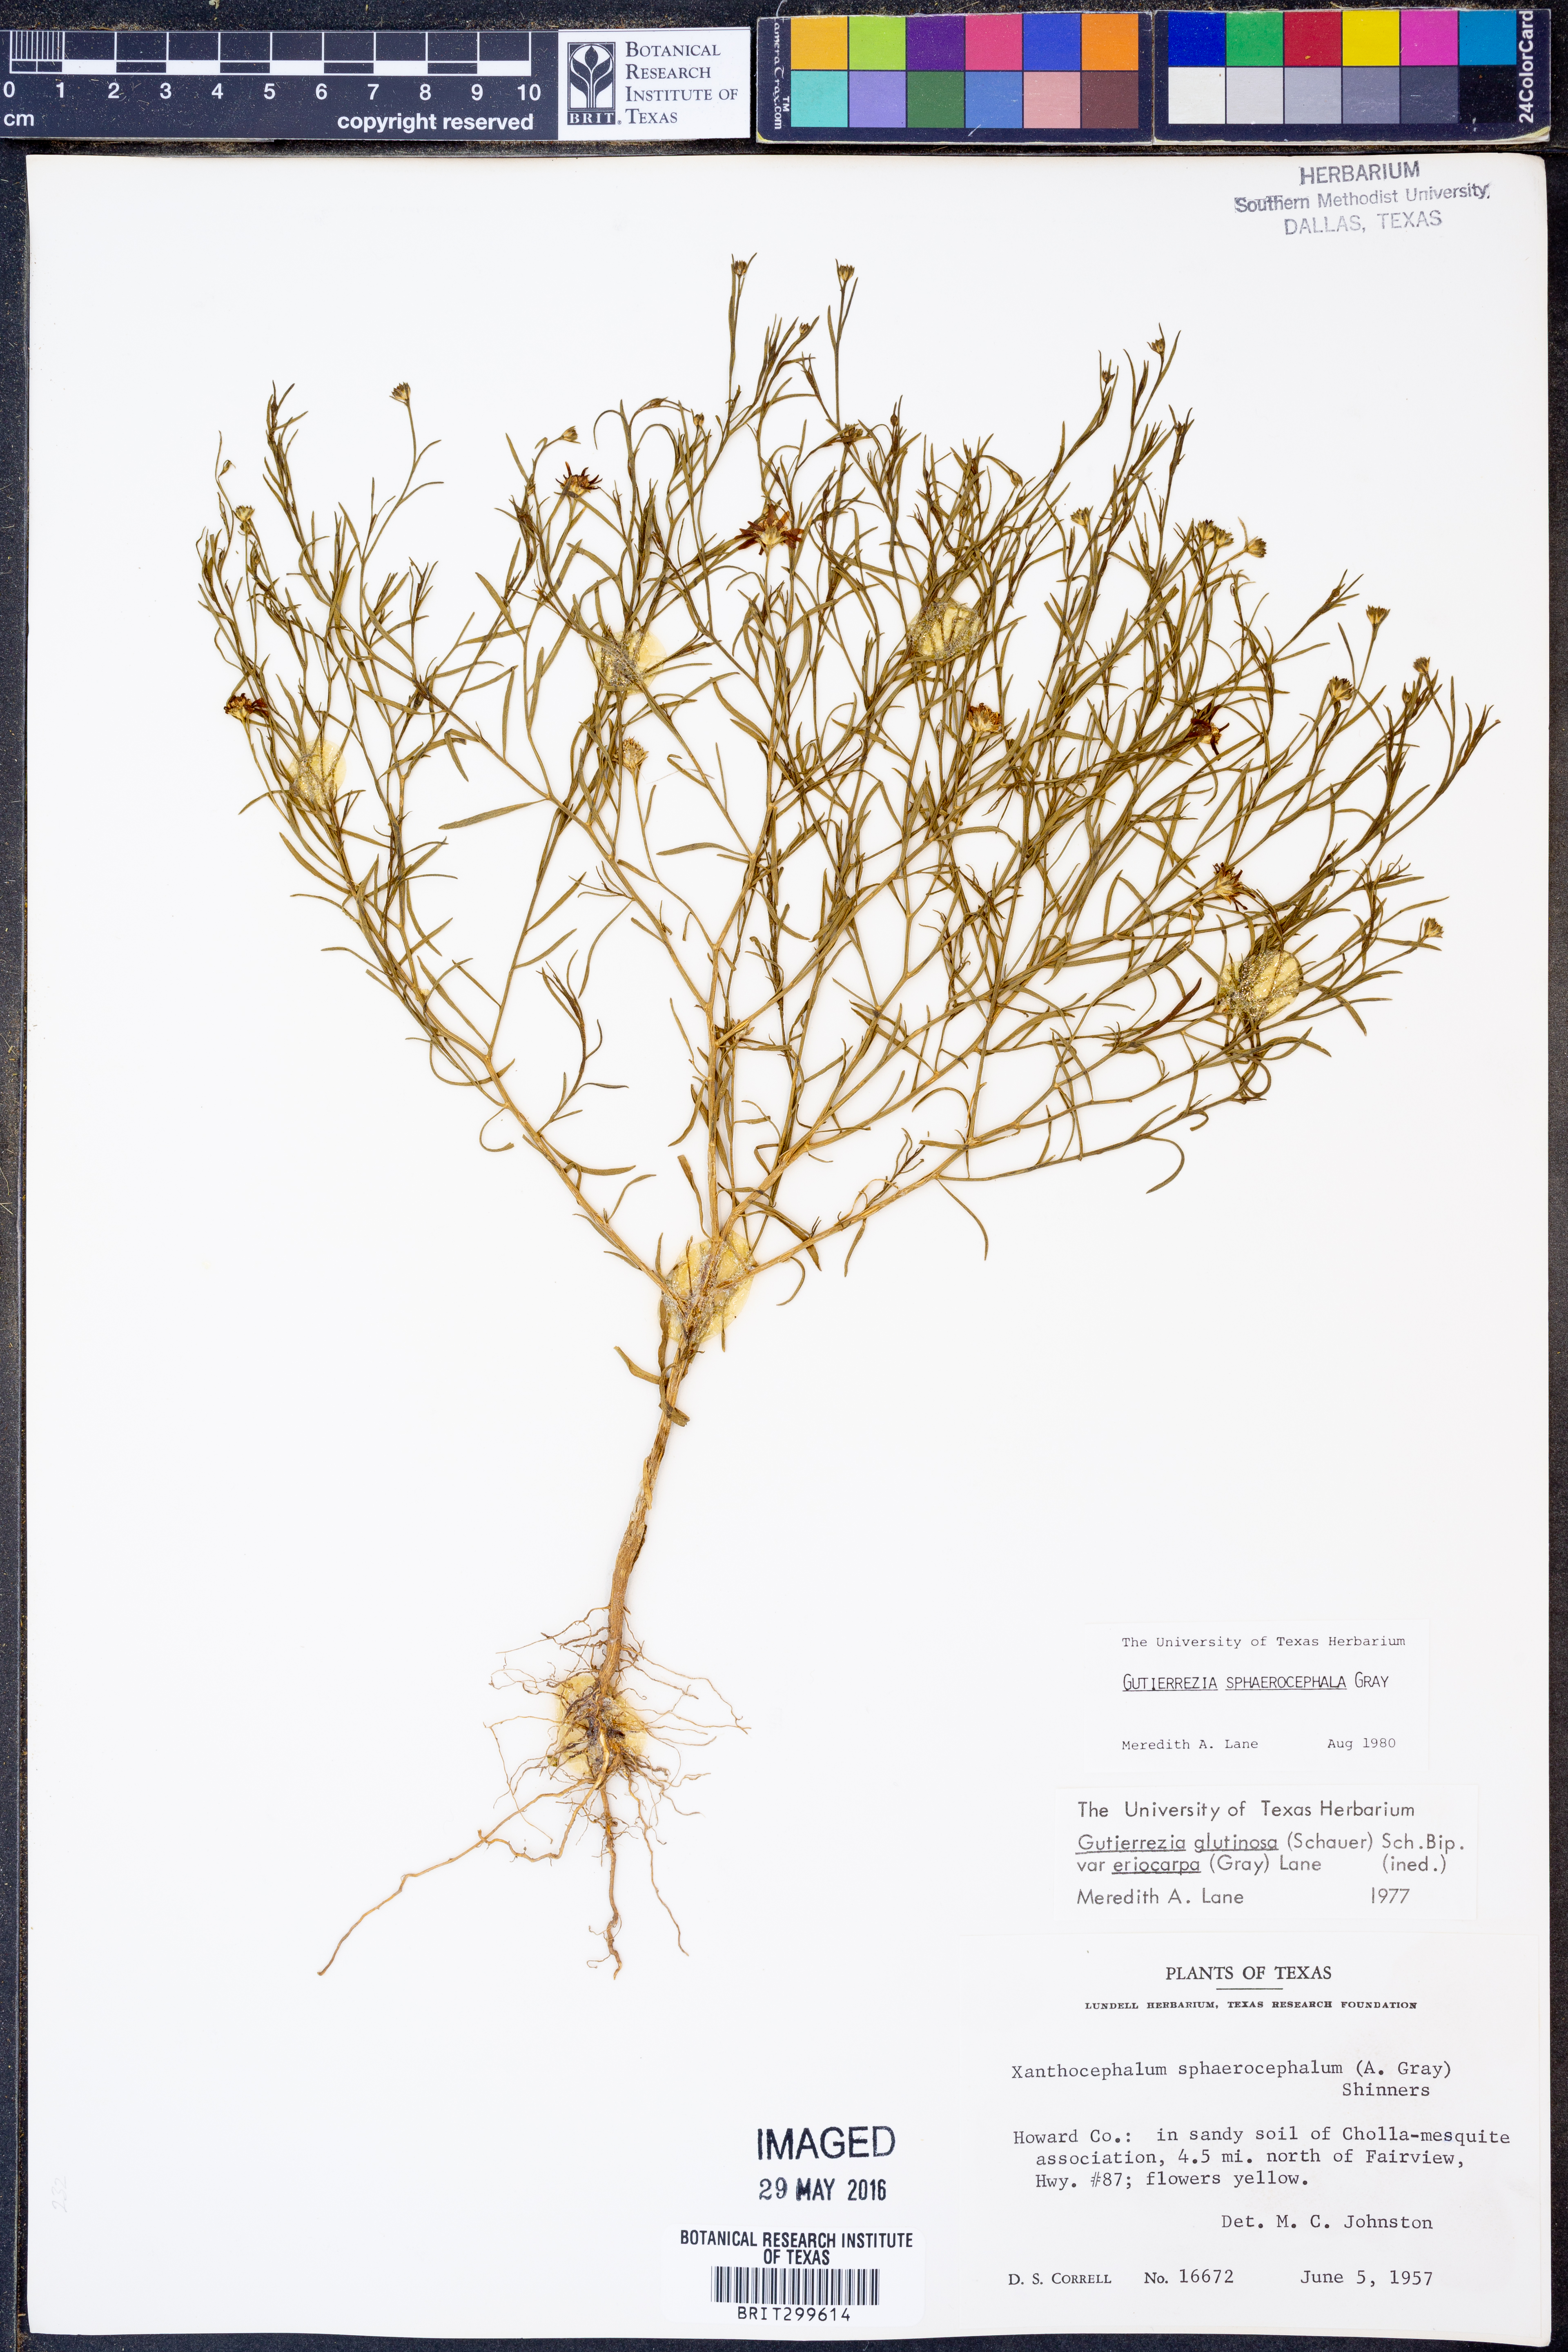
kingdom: Plantae
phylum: Tracheophyta
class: Magnoliopsida
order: Asterales
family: Asteraceae
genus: Gutierrezia
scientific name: Gutierrezia sphaerocephala
